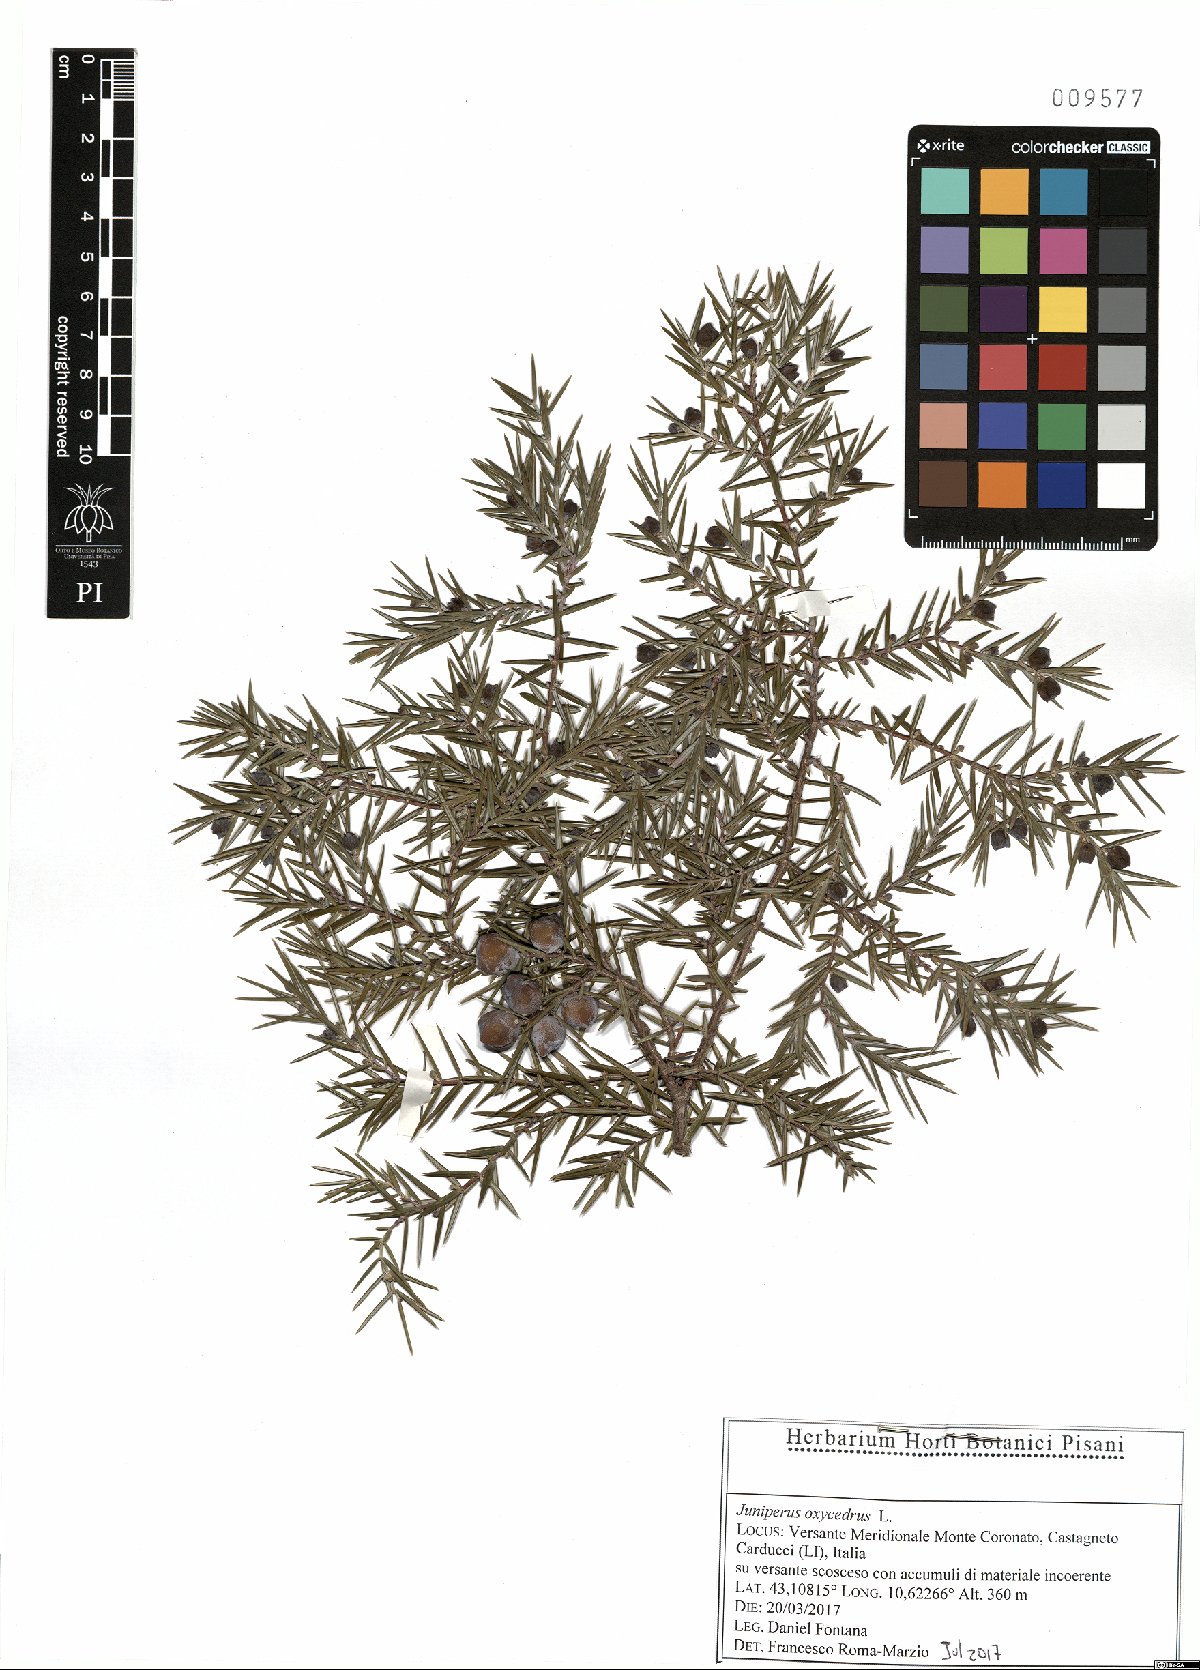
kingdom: Plantae
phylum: Tracheophyta
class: Pinopsida
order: Pinales
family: Cupressaceae
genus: Juniperus
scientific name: Juniperus oxycedrus
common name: Prickly juniper
